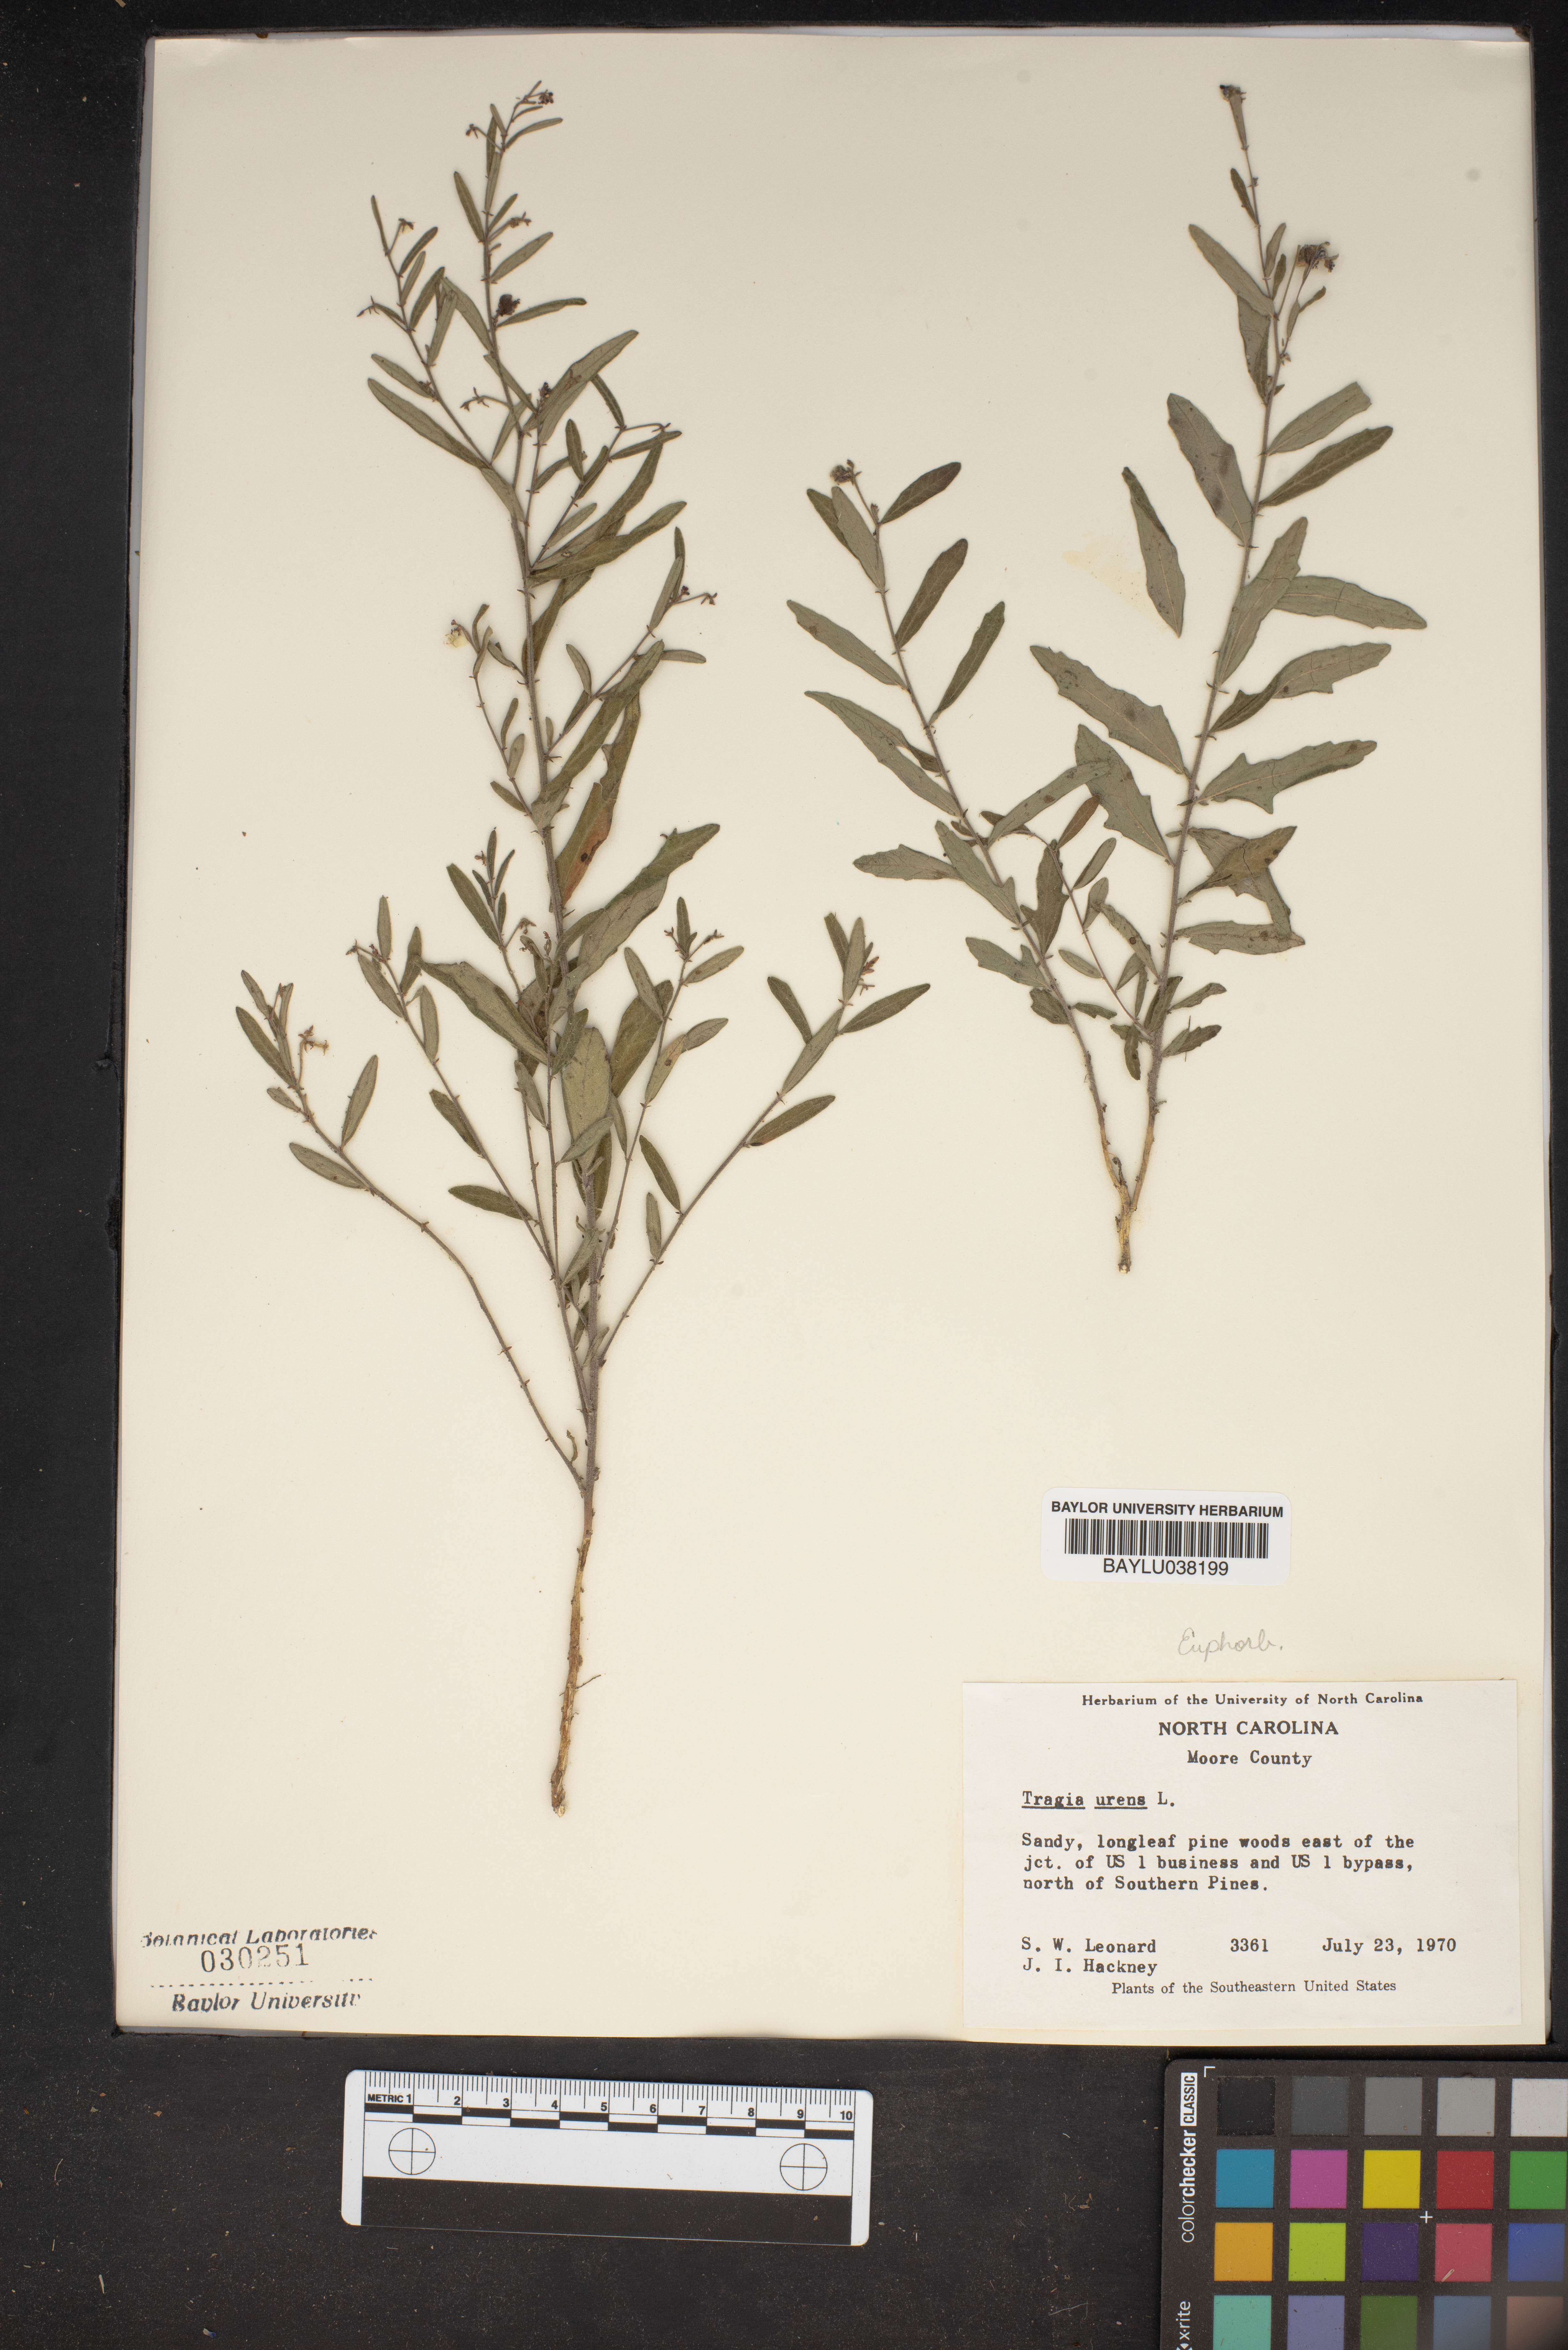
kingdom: Plantae
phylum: Tracheophyta
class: Magnoliopsida
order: Malpighiales
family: Euphorbiaceae
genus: Tragia
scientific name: Tragia urens
